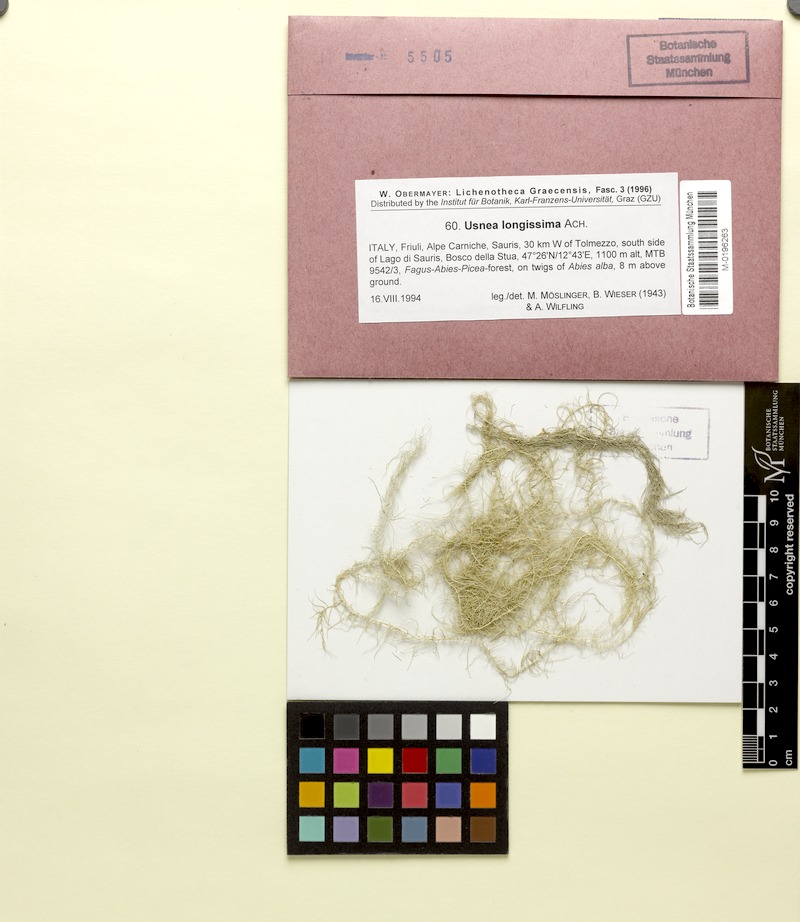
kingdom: Fungi
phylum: Ascomycota
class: Lecanoromycetes
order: Lecanorales
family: Parmeliaceae
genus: Dolichousnea
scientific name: Dolichousnea longissima
